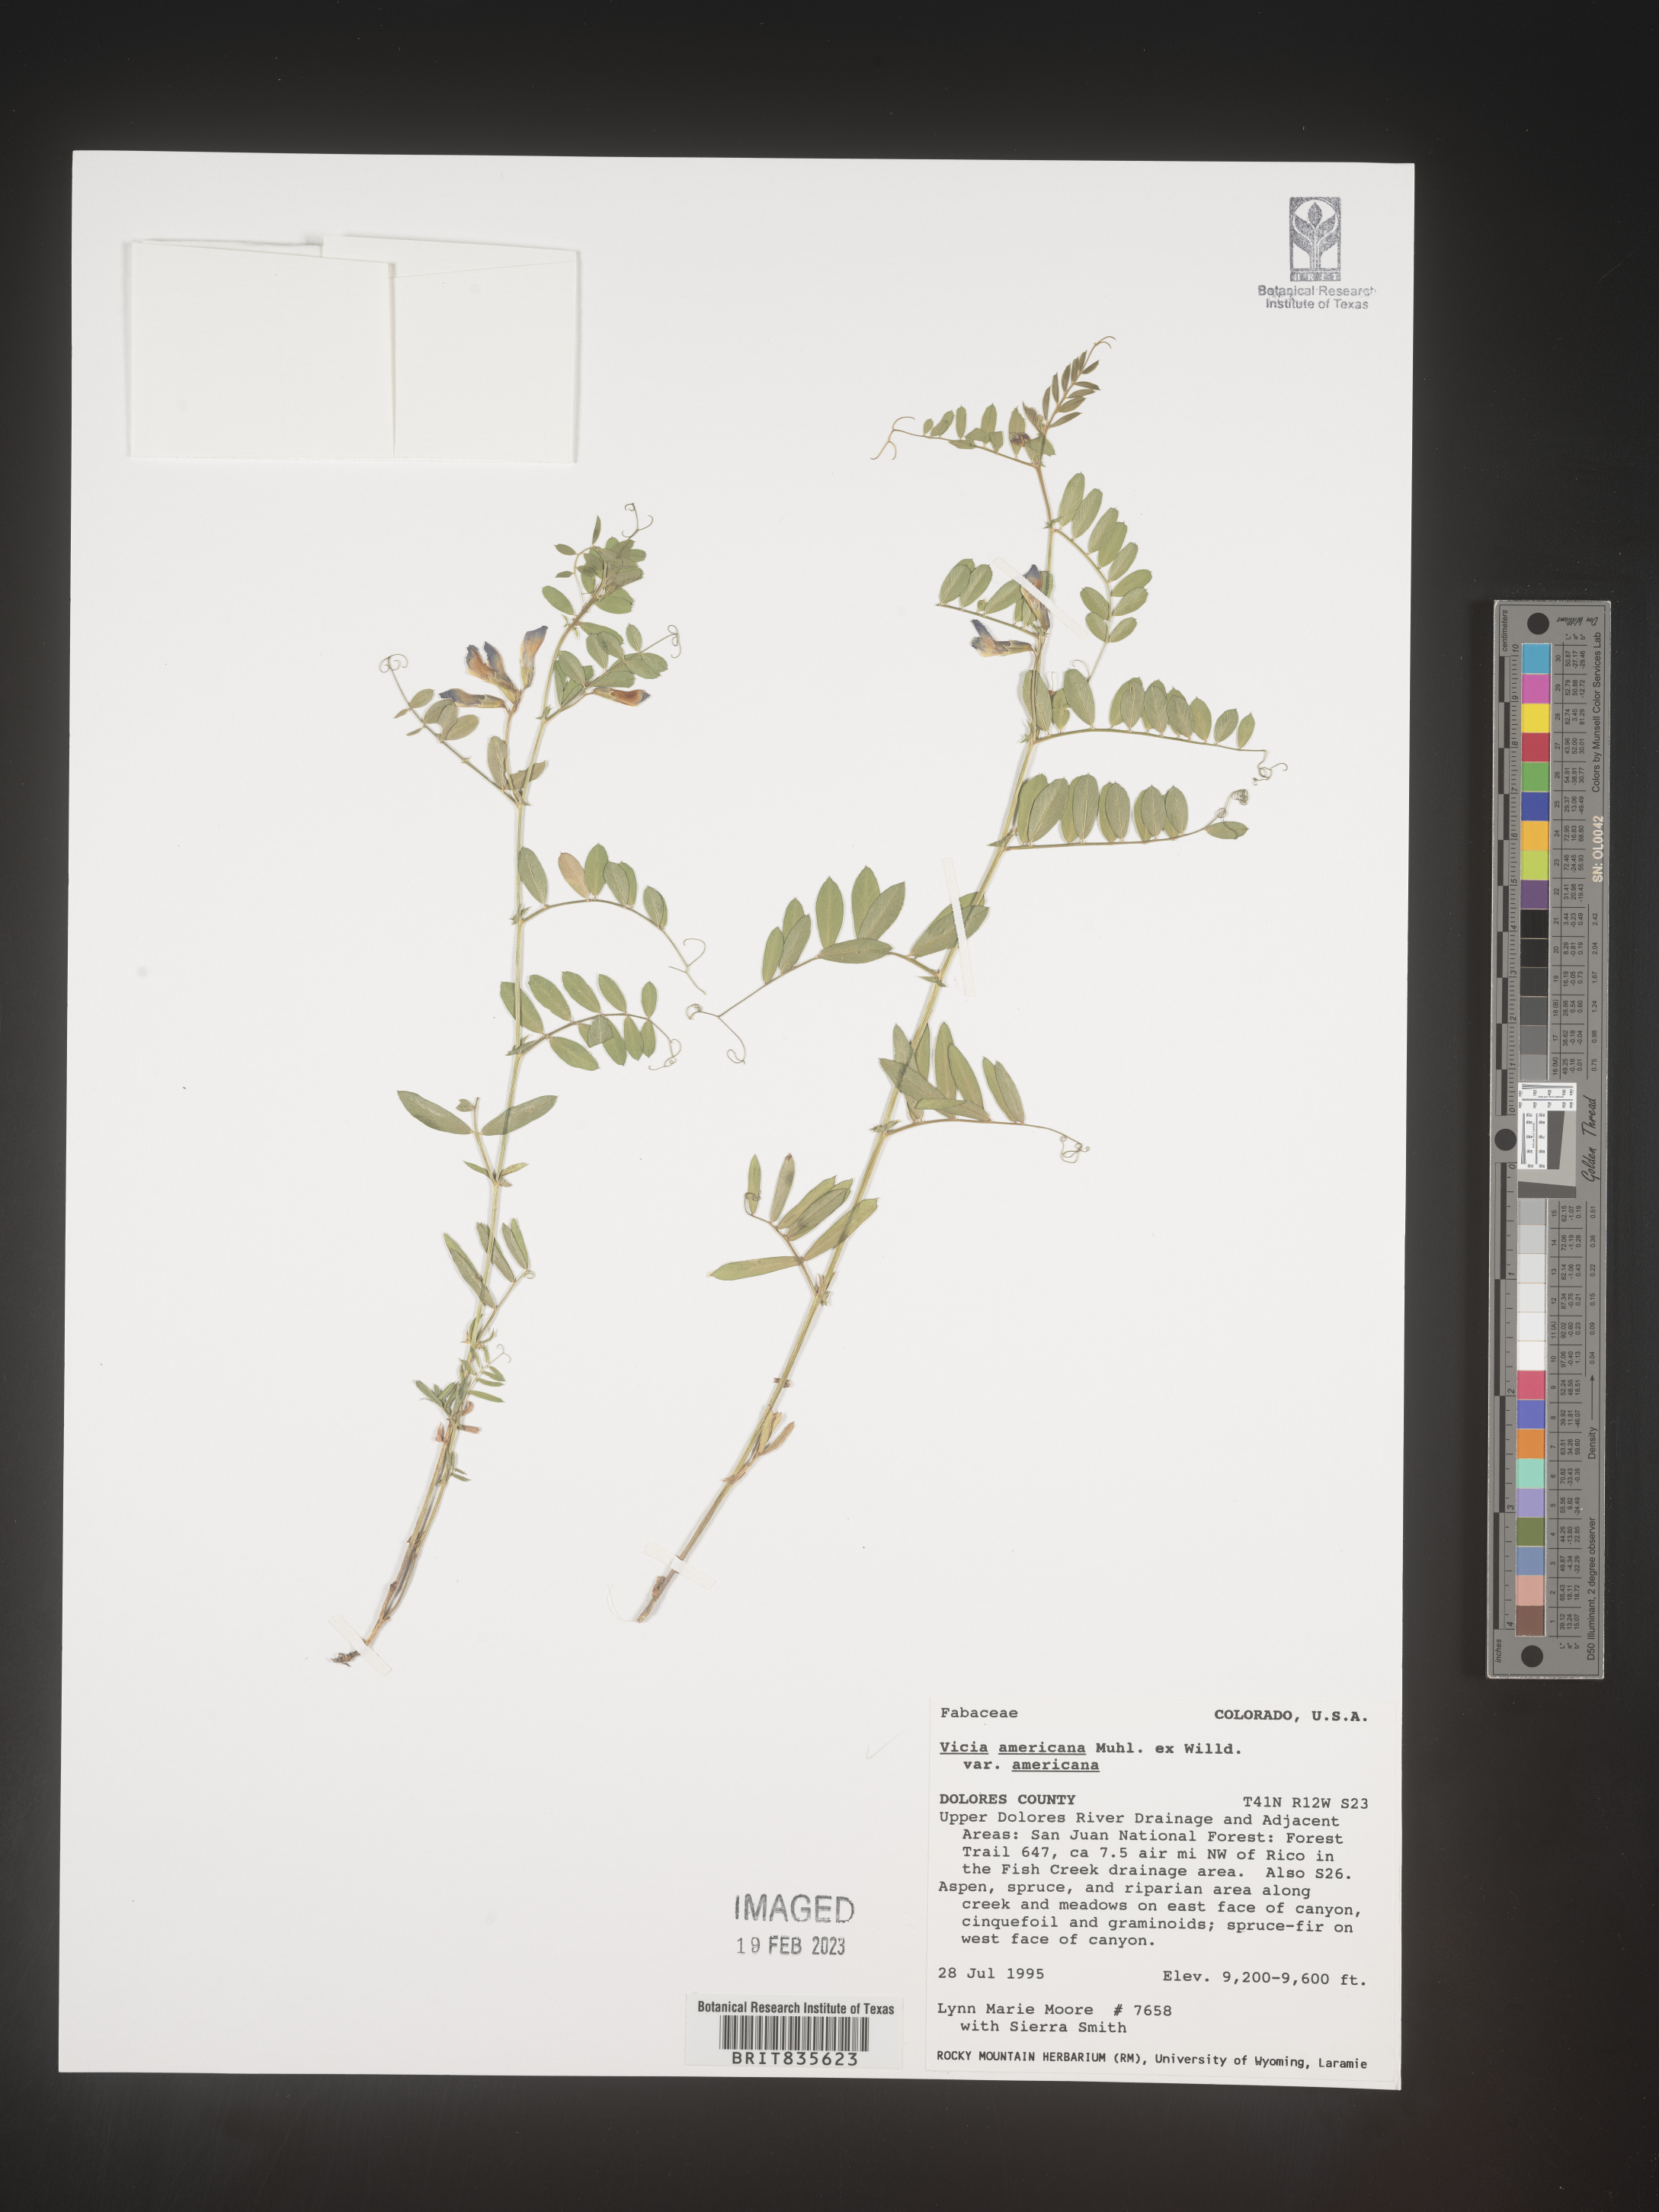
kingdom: Plantae
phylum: Tracheophyta
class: Magnoliopsida
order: Fabales
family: Fabaceae
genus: Vicia
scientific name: Vicia americana
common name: American vetch
